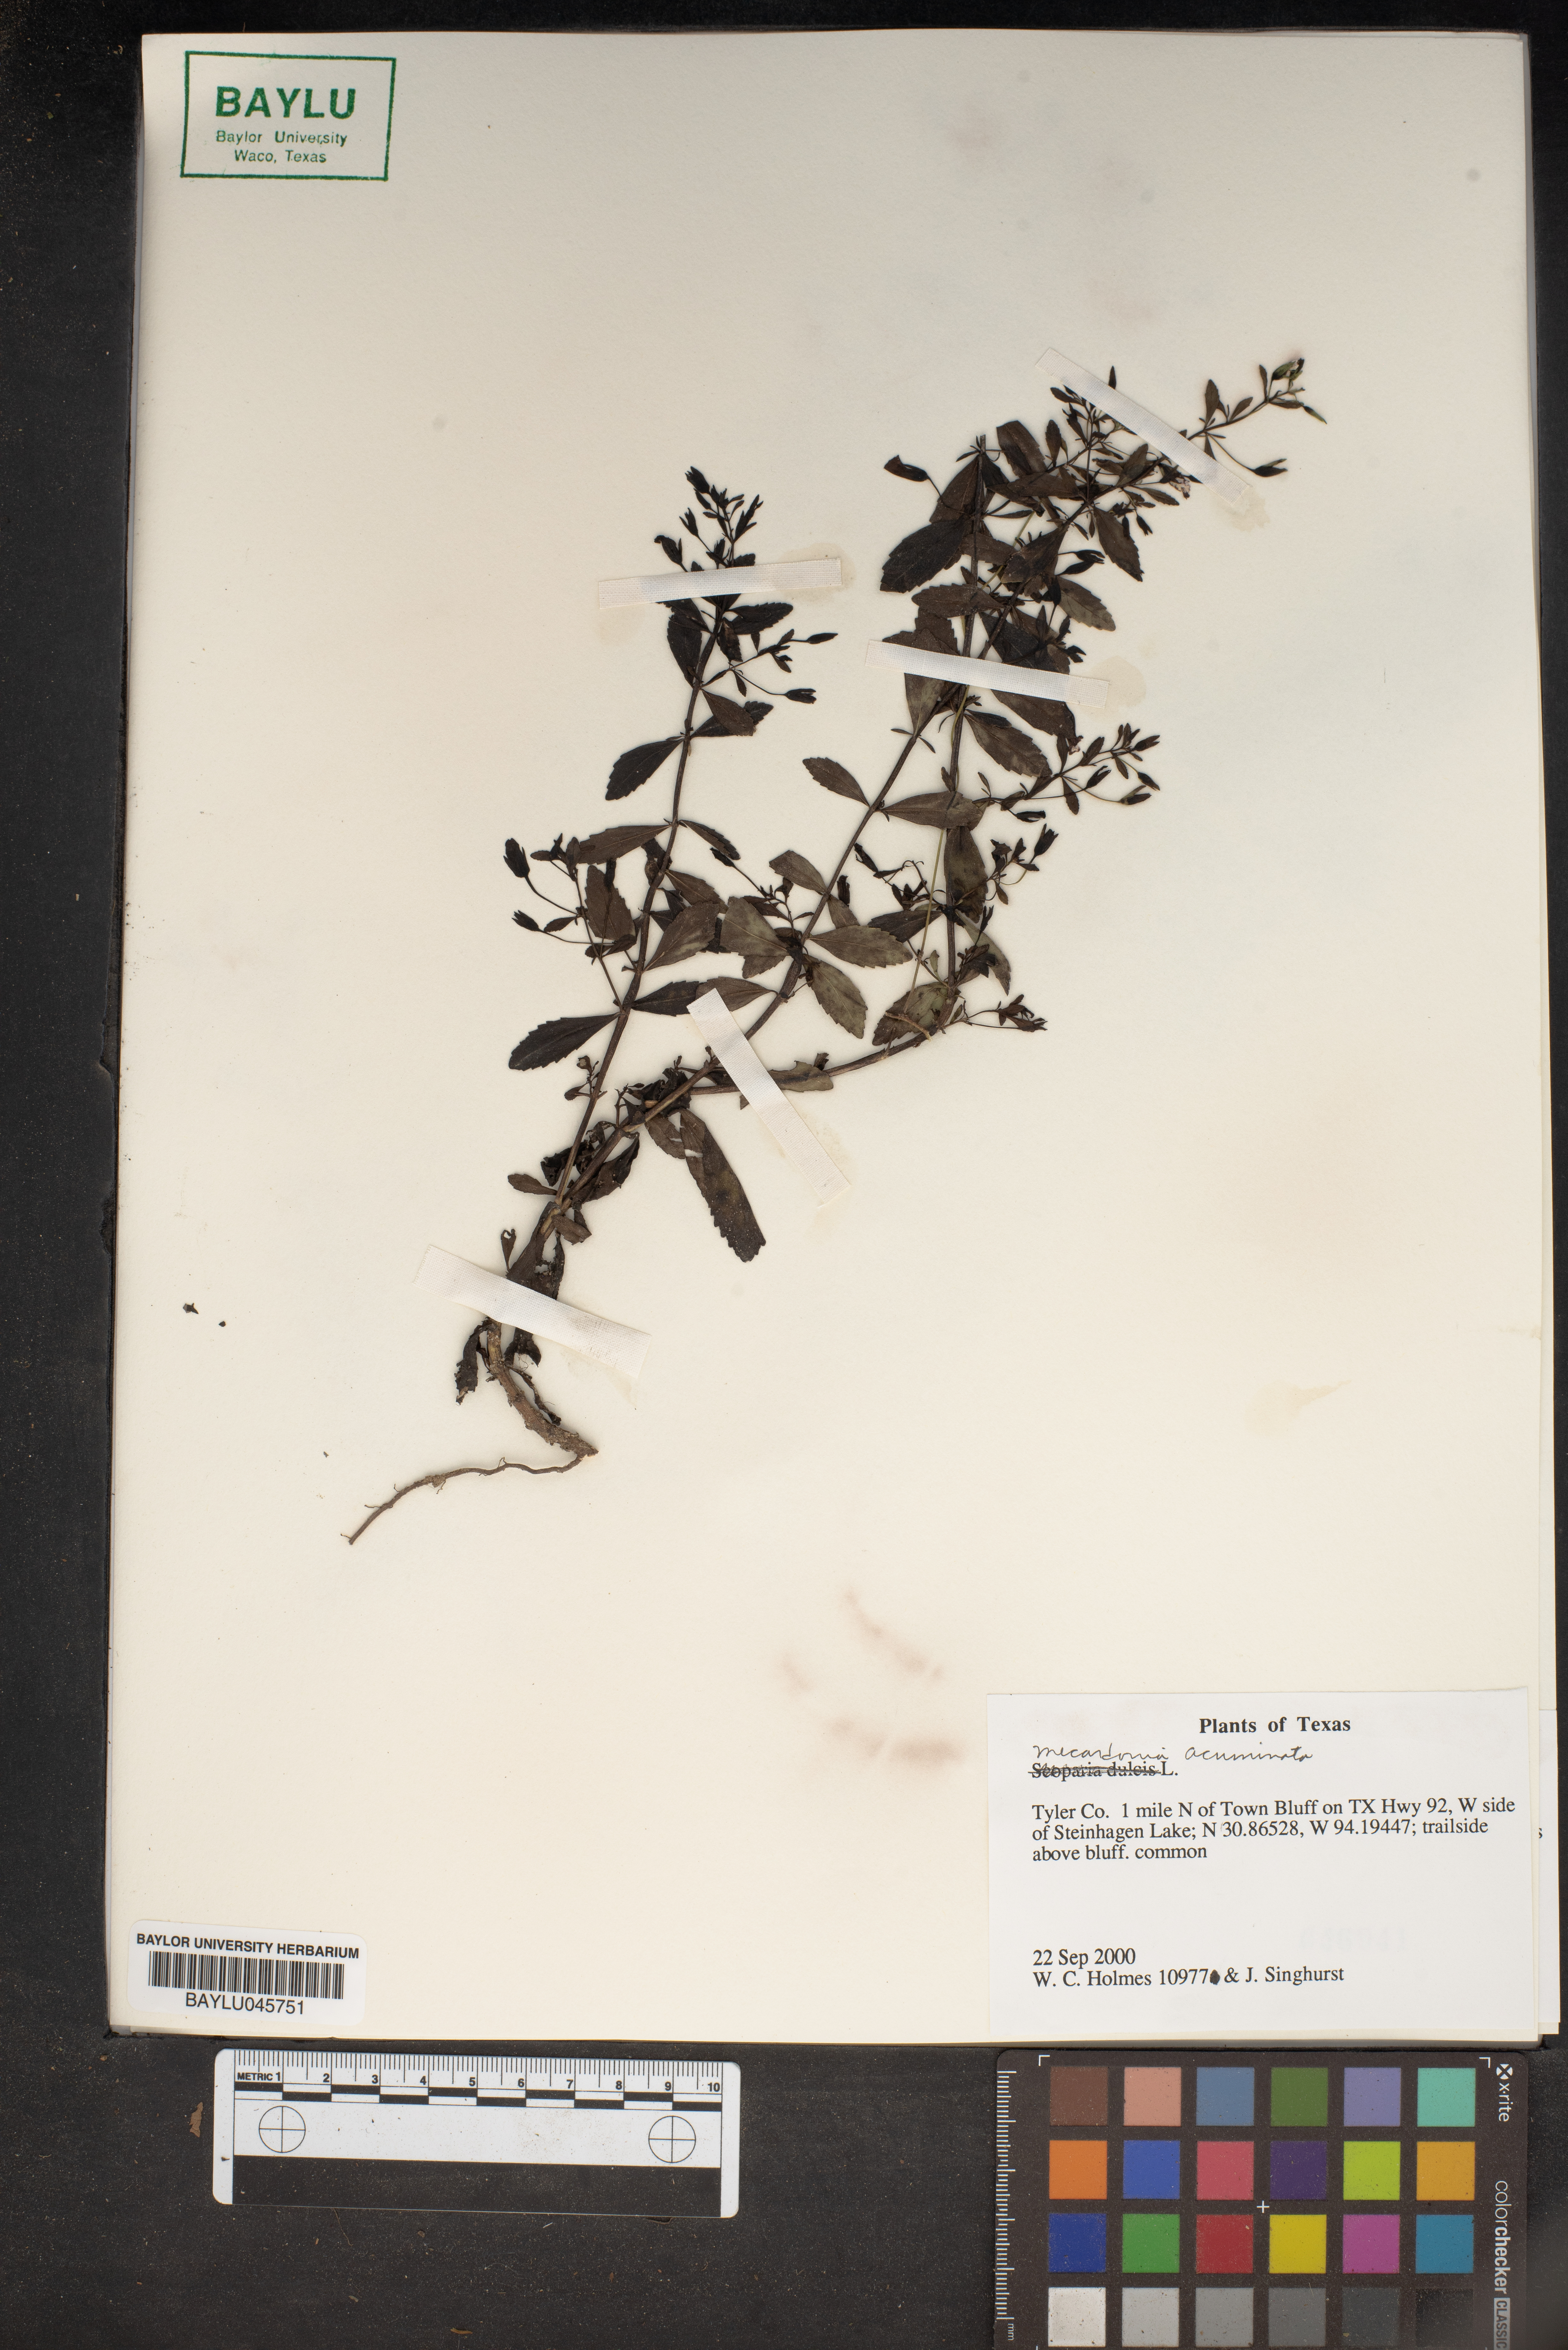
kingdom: Plantae
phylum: Tracheophyta
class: Magnoliopsida
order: Lamiales
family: Plantaginaceae
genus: Mecardonia
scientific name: Mecardonia acuminata
